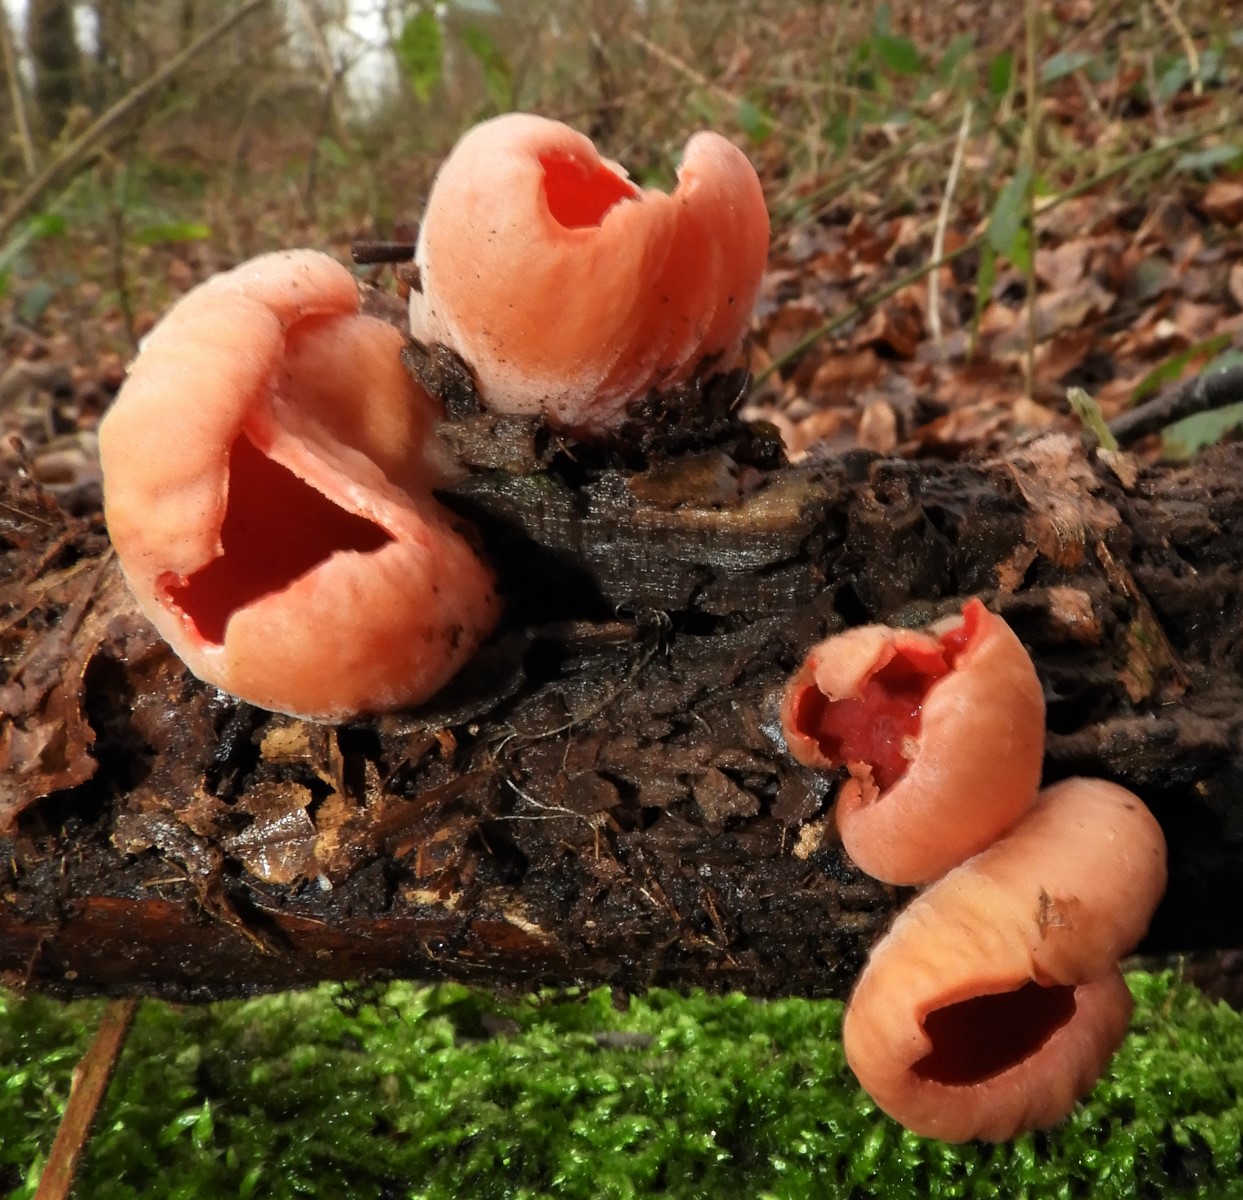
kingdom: Fungi
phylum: Ascomycota
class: Pezizomycetes
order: Pezizales
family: Sarcoscyphaceae
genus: Sarcoscypha
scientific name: Sarcoscypha austriaca
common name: krølhåret pragtbæger
